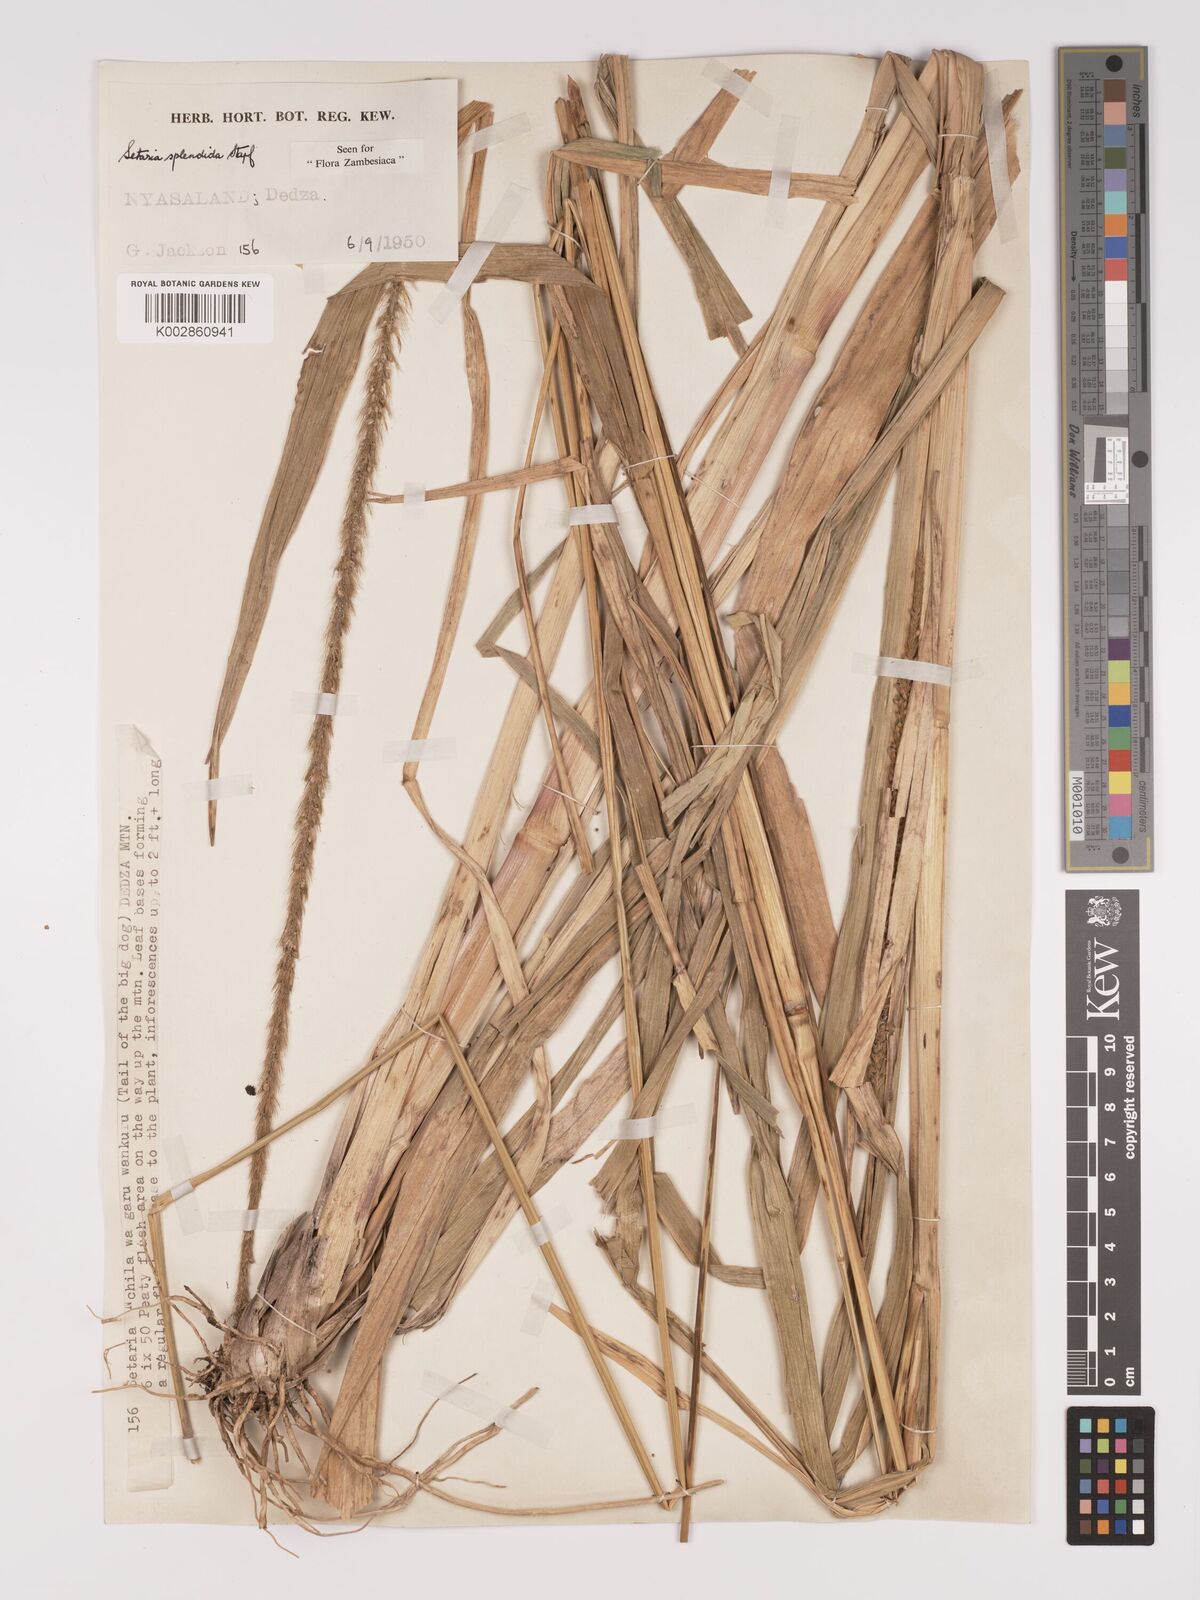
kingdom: Plantae
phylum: Tracheophyta
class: Liliopsida
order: Poales
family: Poaceae
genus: Setaria
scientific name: Setaria sphacelata
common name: African bristlegrass
